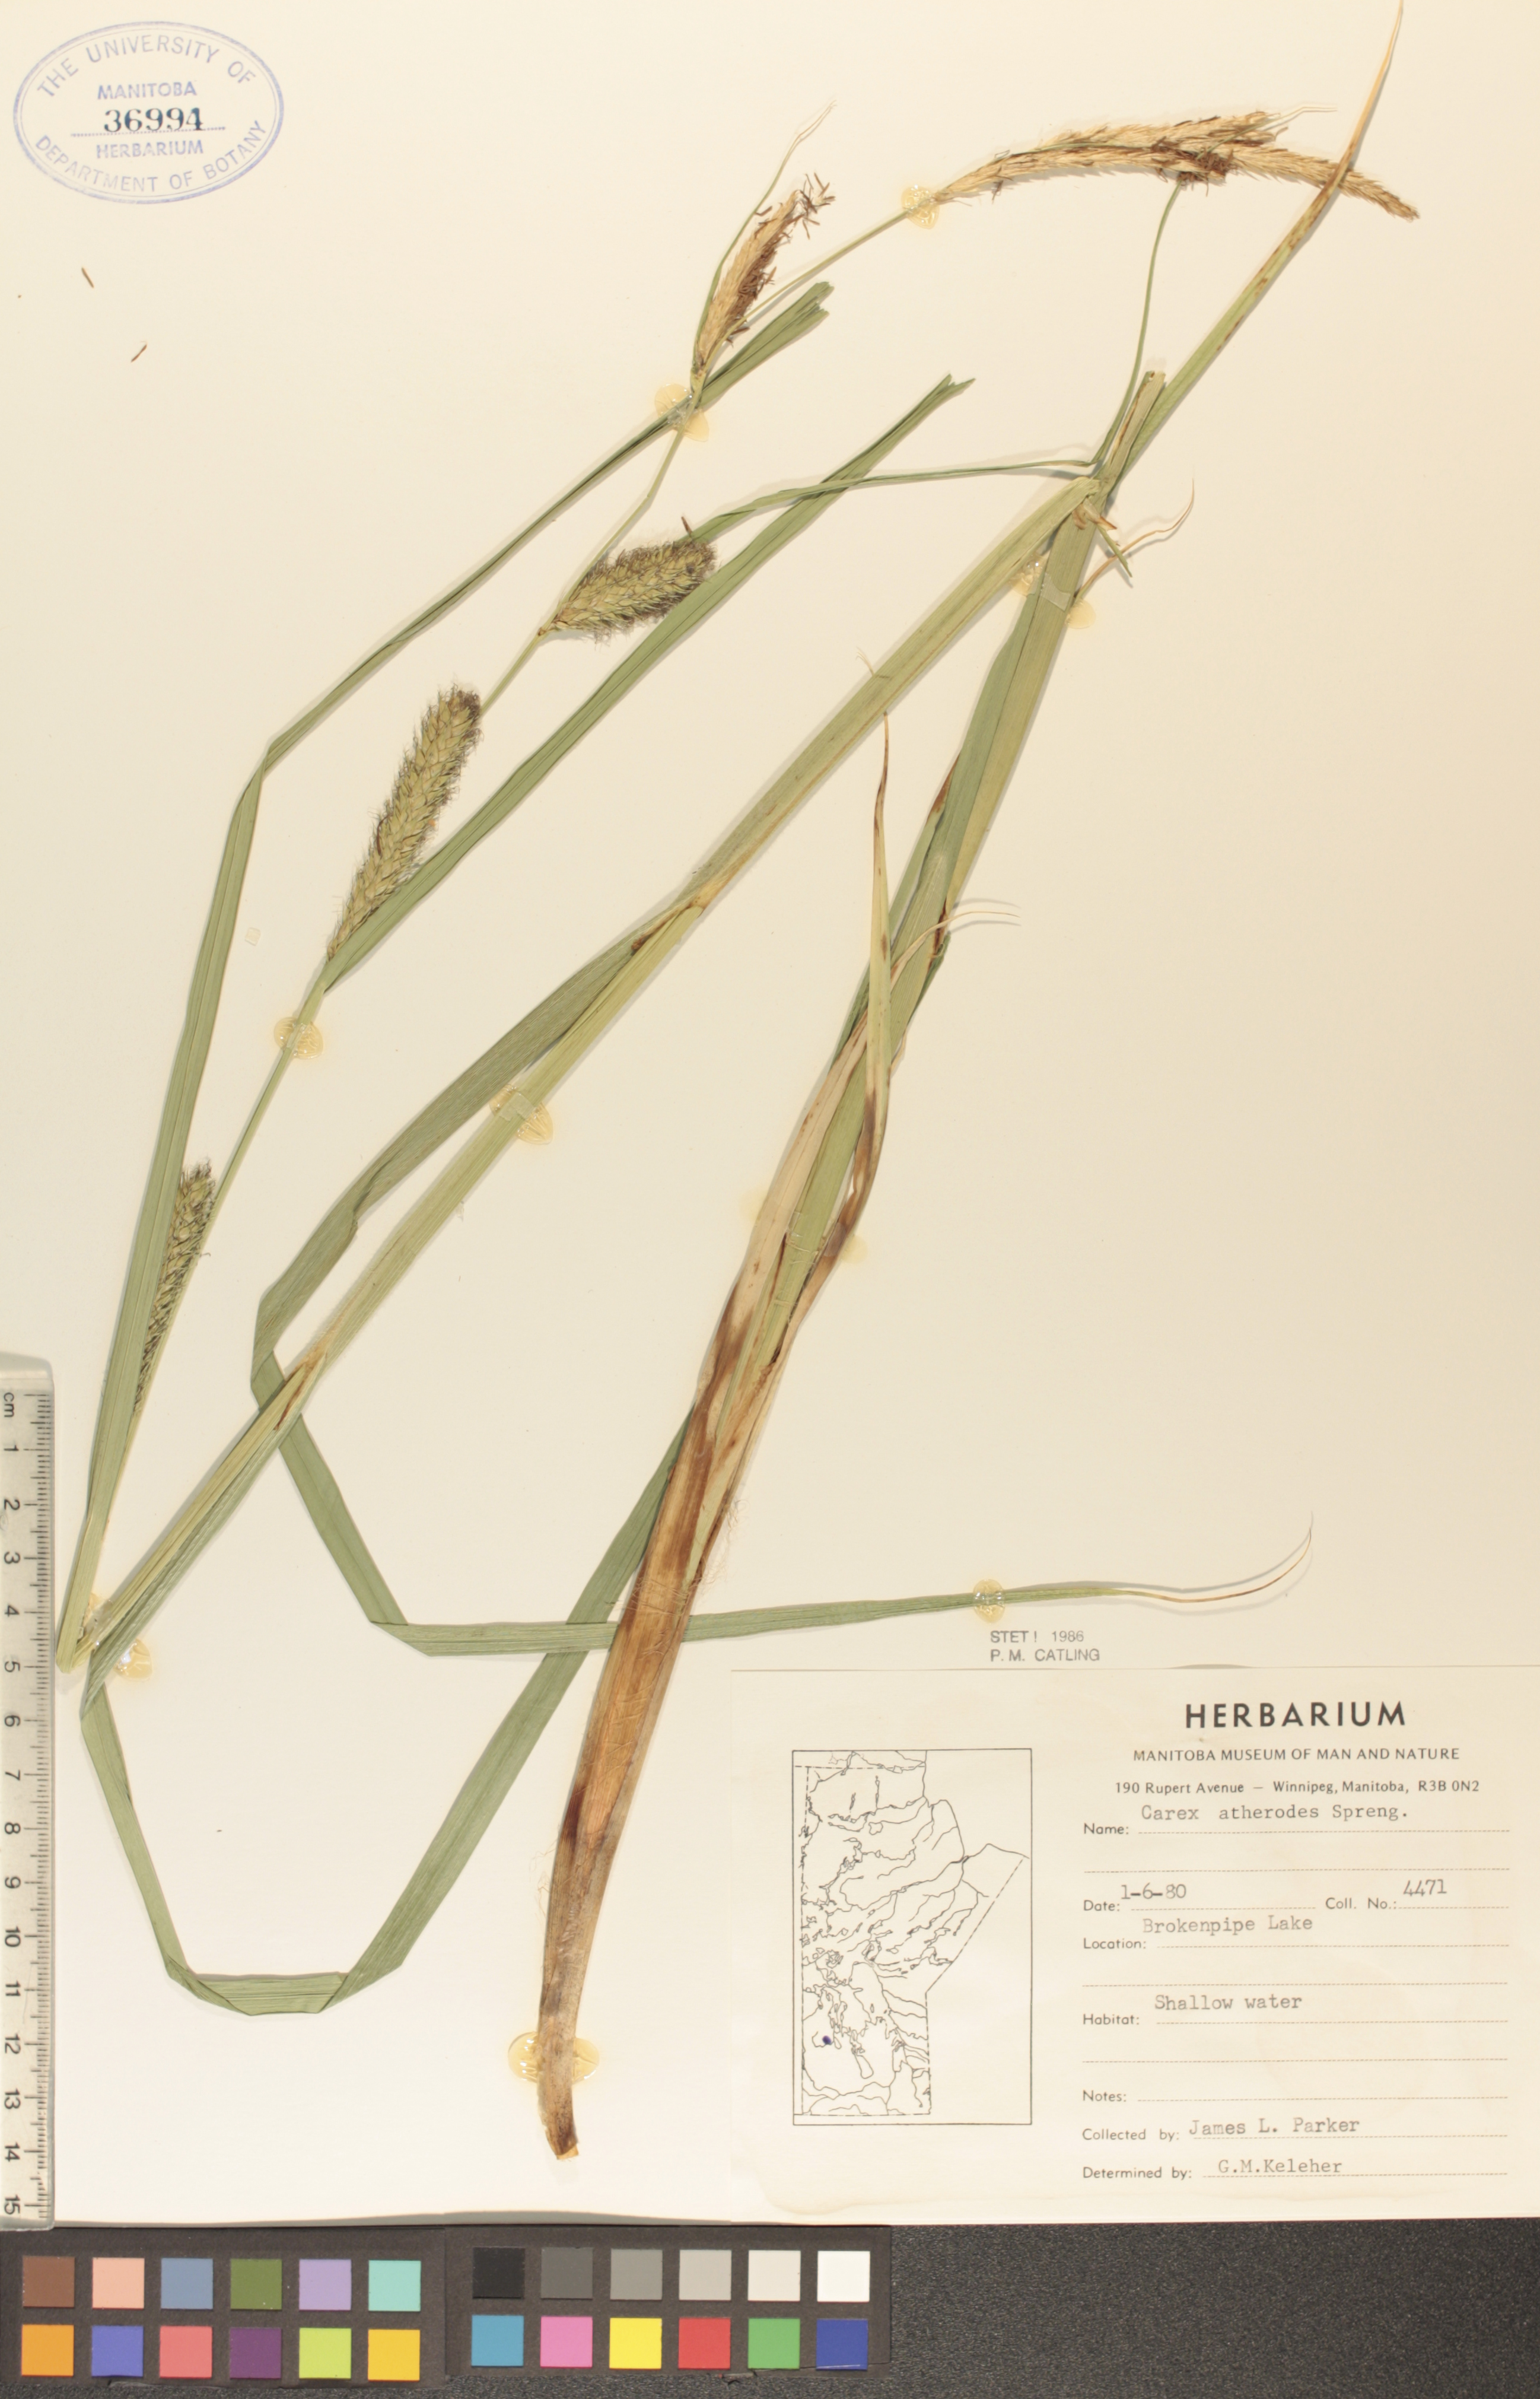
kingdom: Plantae
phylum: Tracheophyta
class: Liliopsida
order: Poales
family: Cyperaceae
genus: Carex
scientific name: Carex atherodes
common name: Wheat sedge
